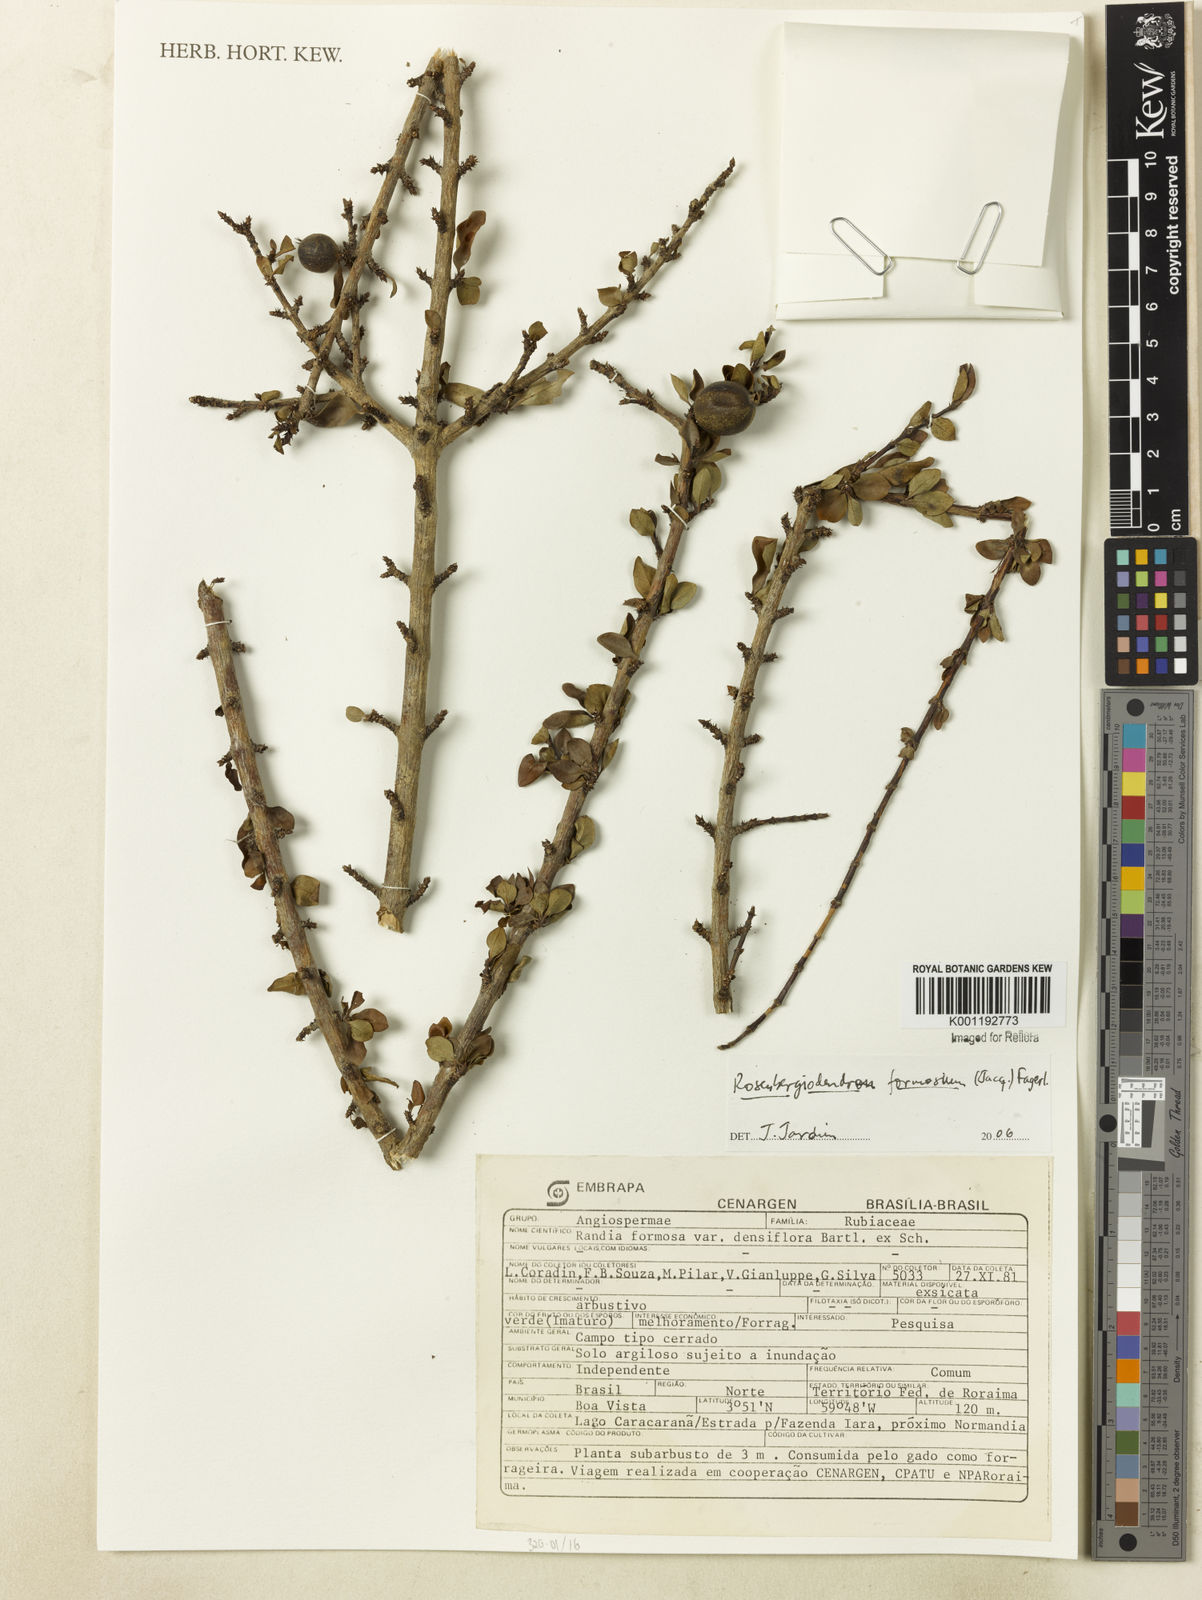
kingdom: Plantae
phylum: Tracheophyta
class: Magnoliopsida
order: Gentianales
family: Rubiaceae
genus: Rosenbergiodendron
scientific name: Rosenbergiodendron densiflorum
